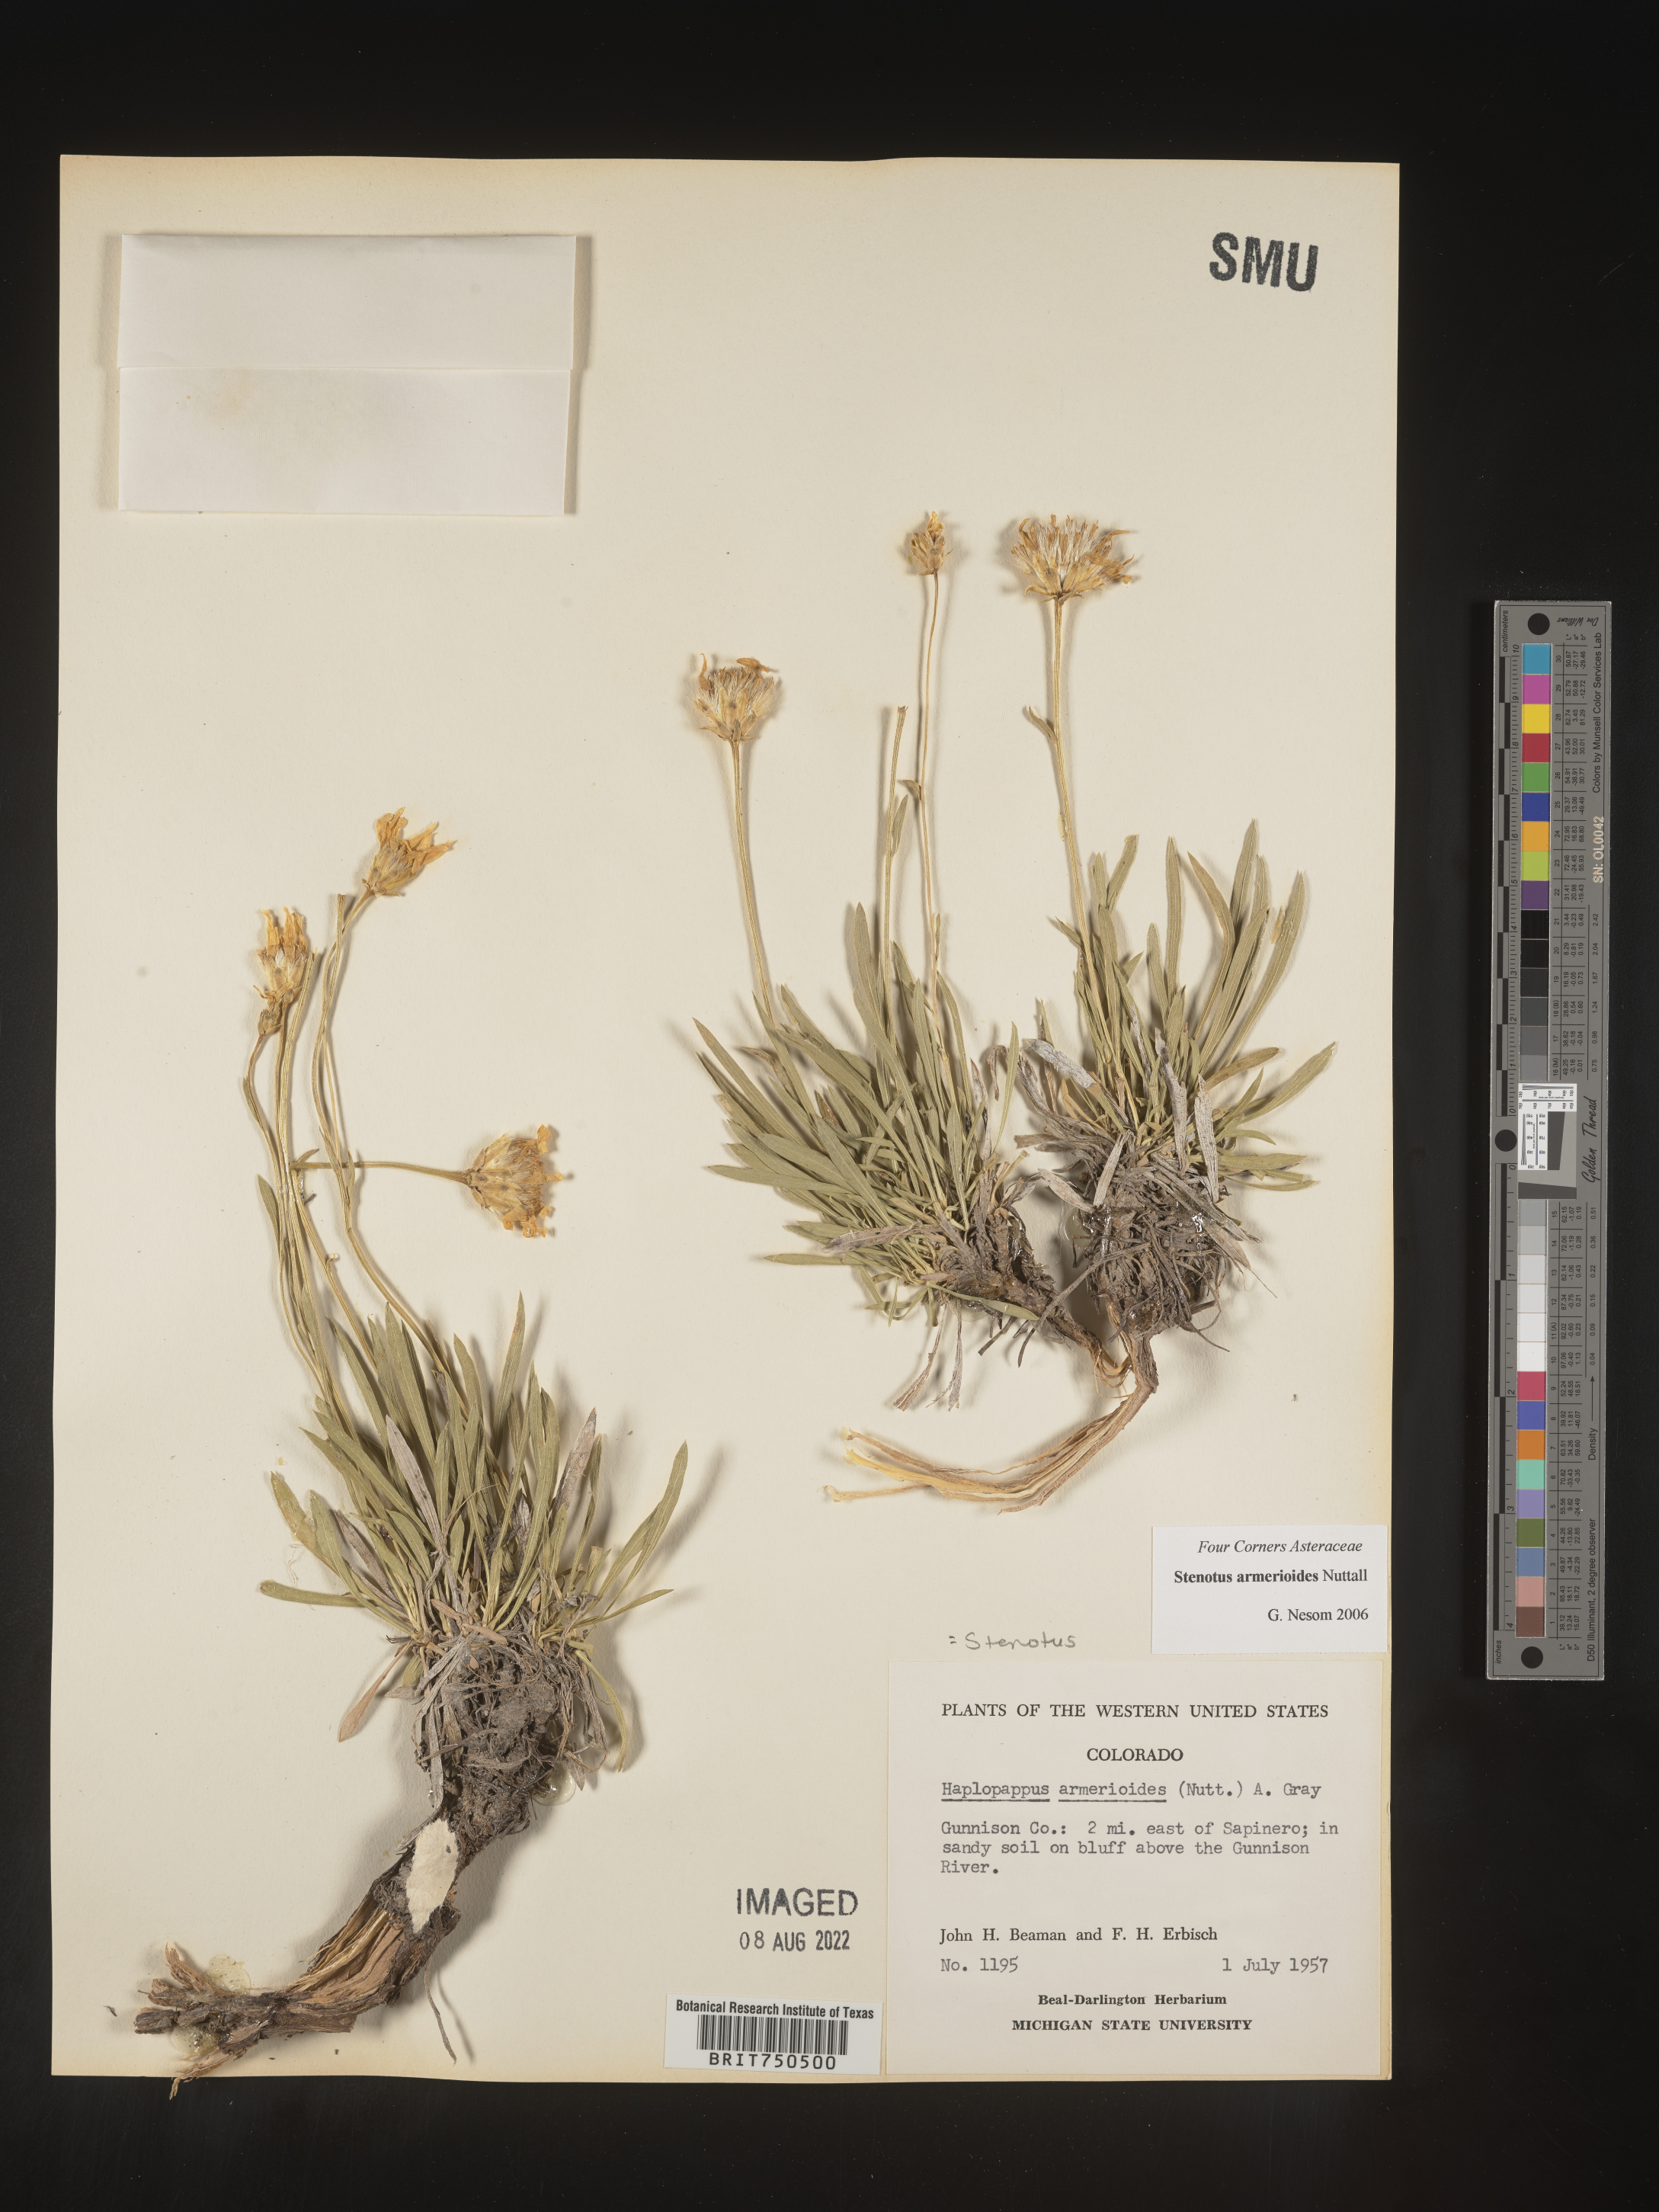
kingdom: Plantae
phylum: Tracheophyta
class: Magnoliopsida
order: Asterales
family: Asteraceae
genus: Stenotus
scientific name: Stenotus armerioides
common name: Thrifty goldenweed
